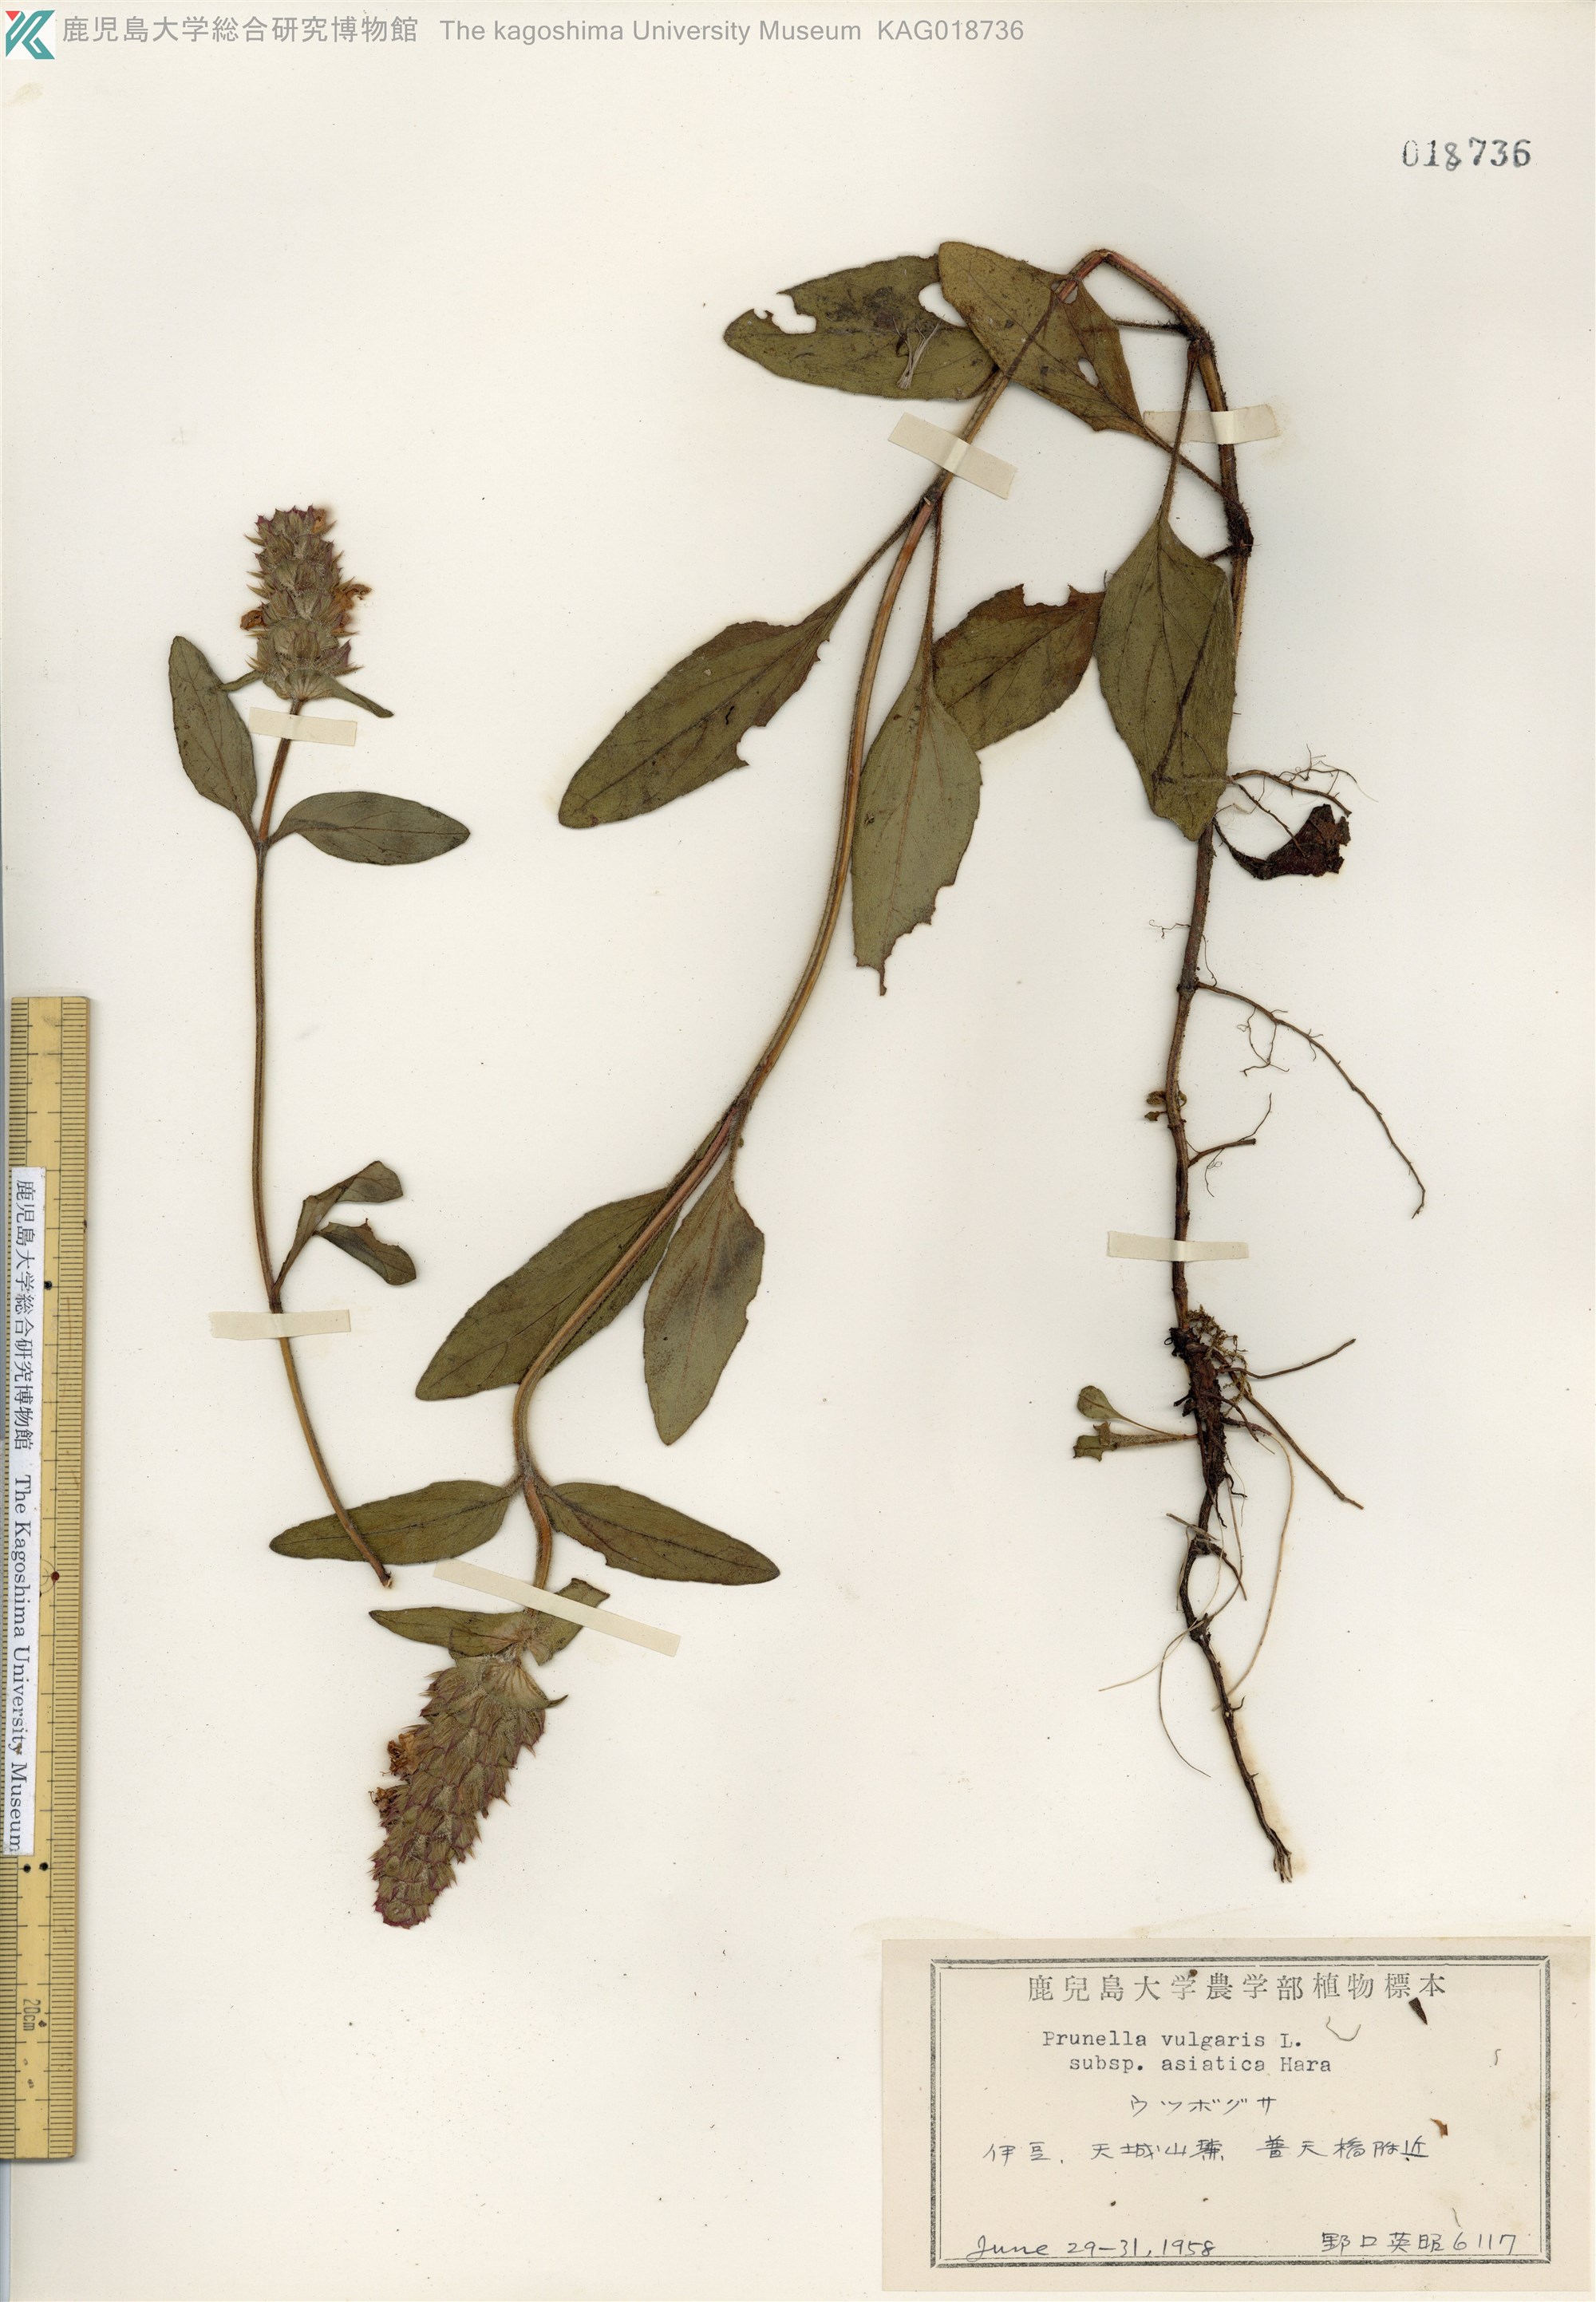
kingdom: Plantae
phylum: Tracheophyta
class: Magnoliopsida
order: Lamiales
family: Lamiaceae
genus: Prunella
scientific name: Prunella vulgaris
